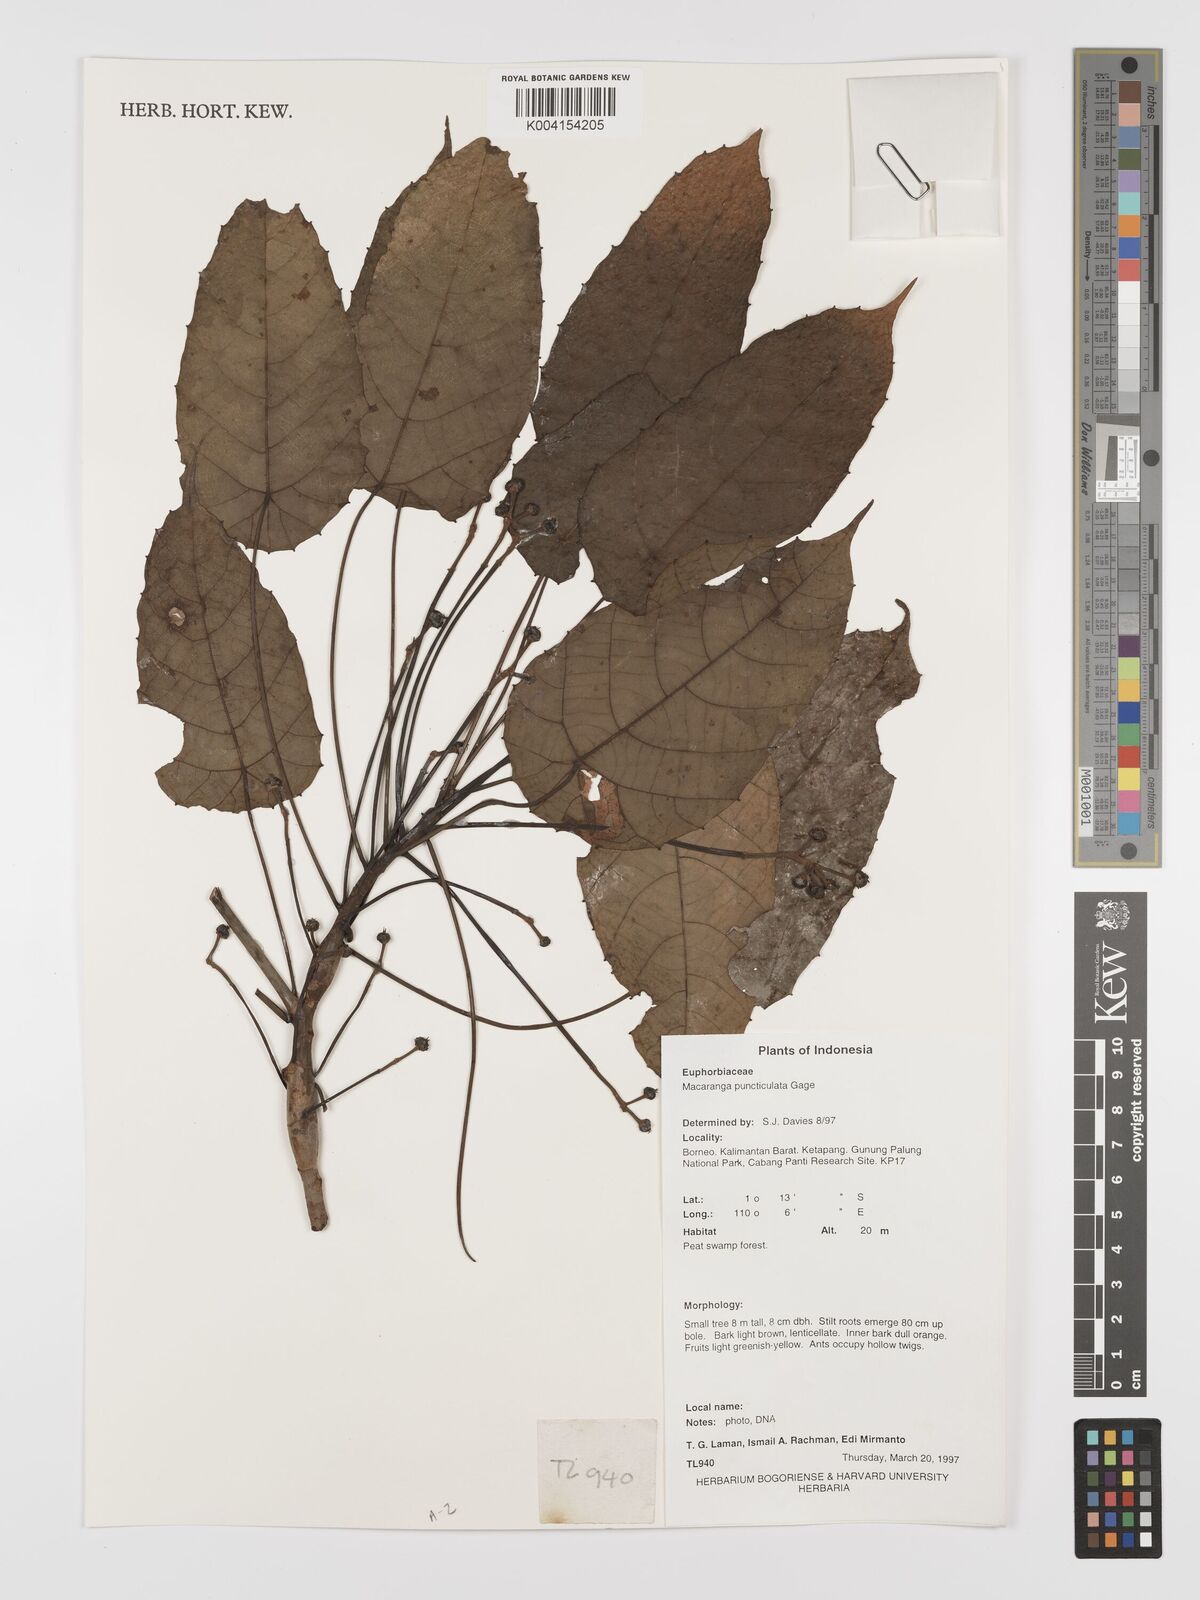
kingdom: Plantae
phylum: Tracheophyta
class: Magnoliopsida
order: Malpighiales
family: Euphorbiaceae
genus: Macaranga
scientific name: Macaranga puncticulata
